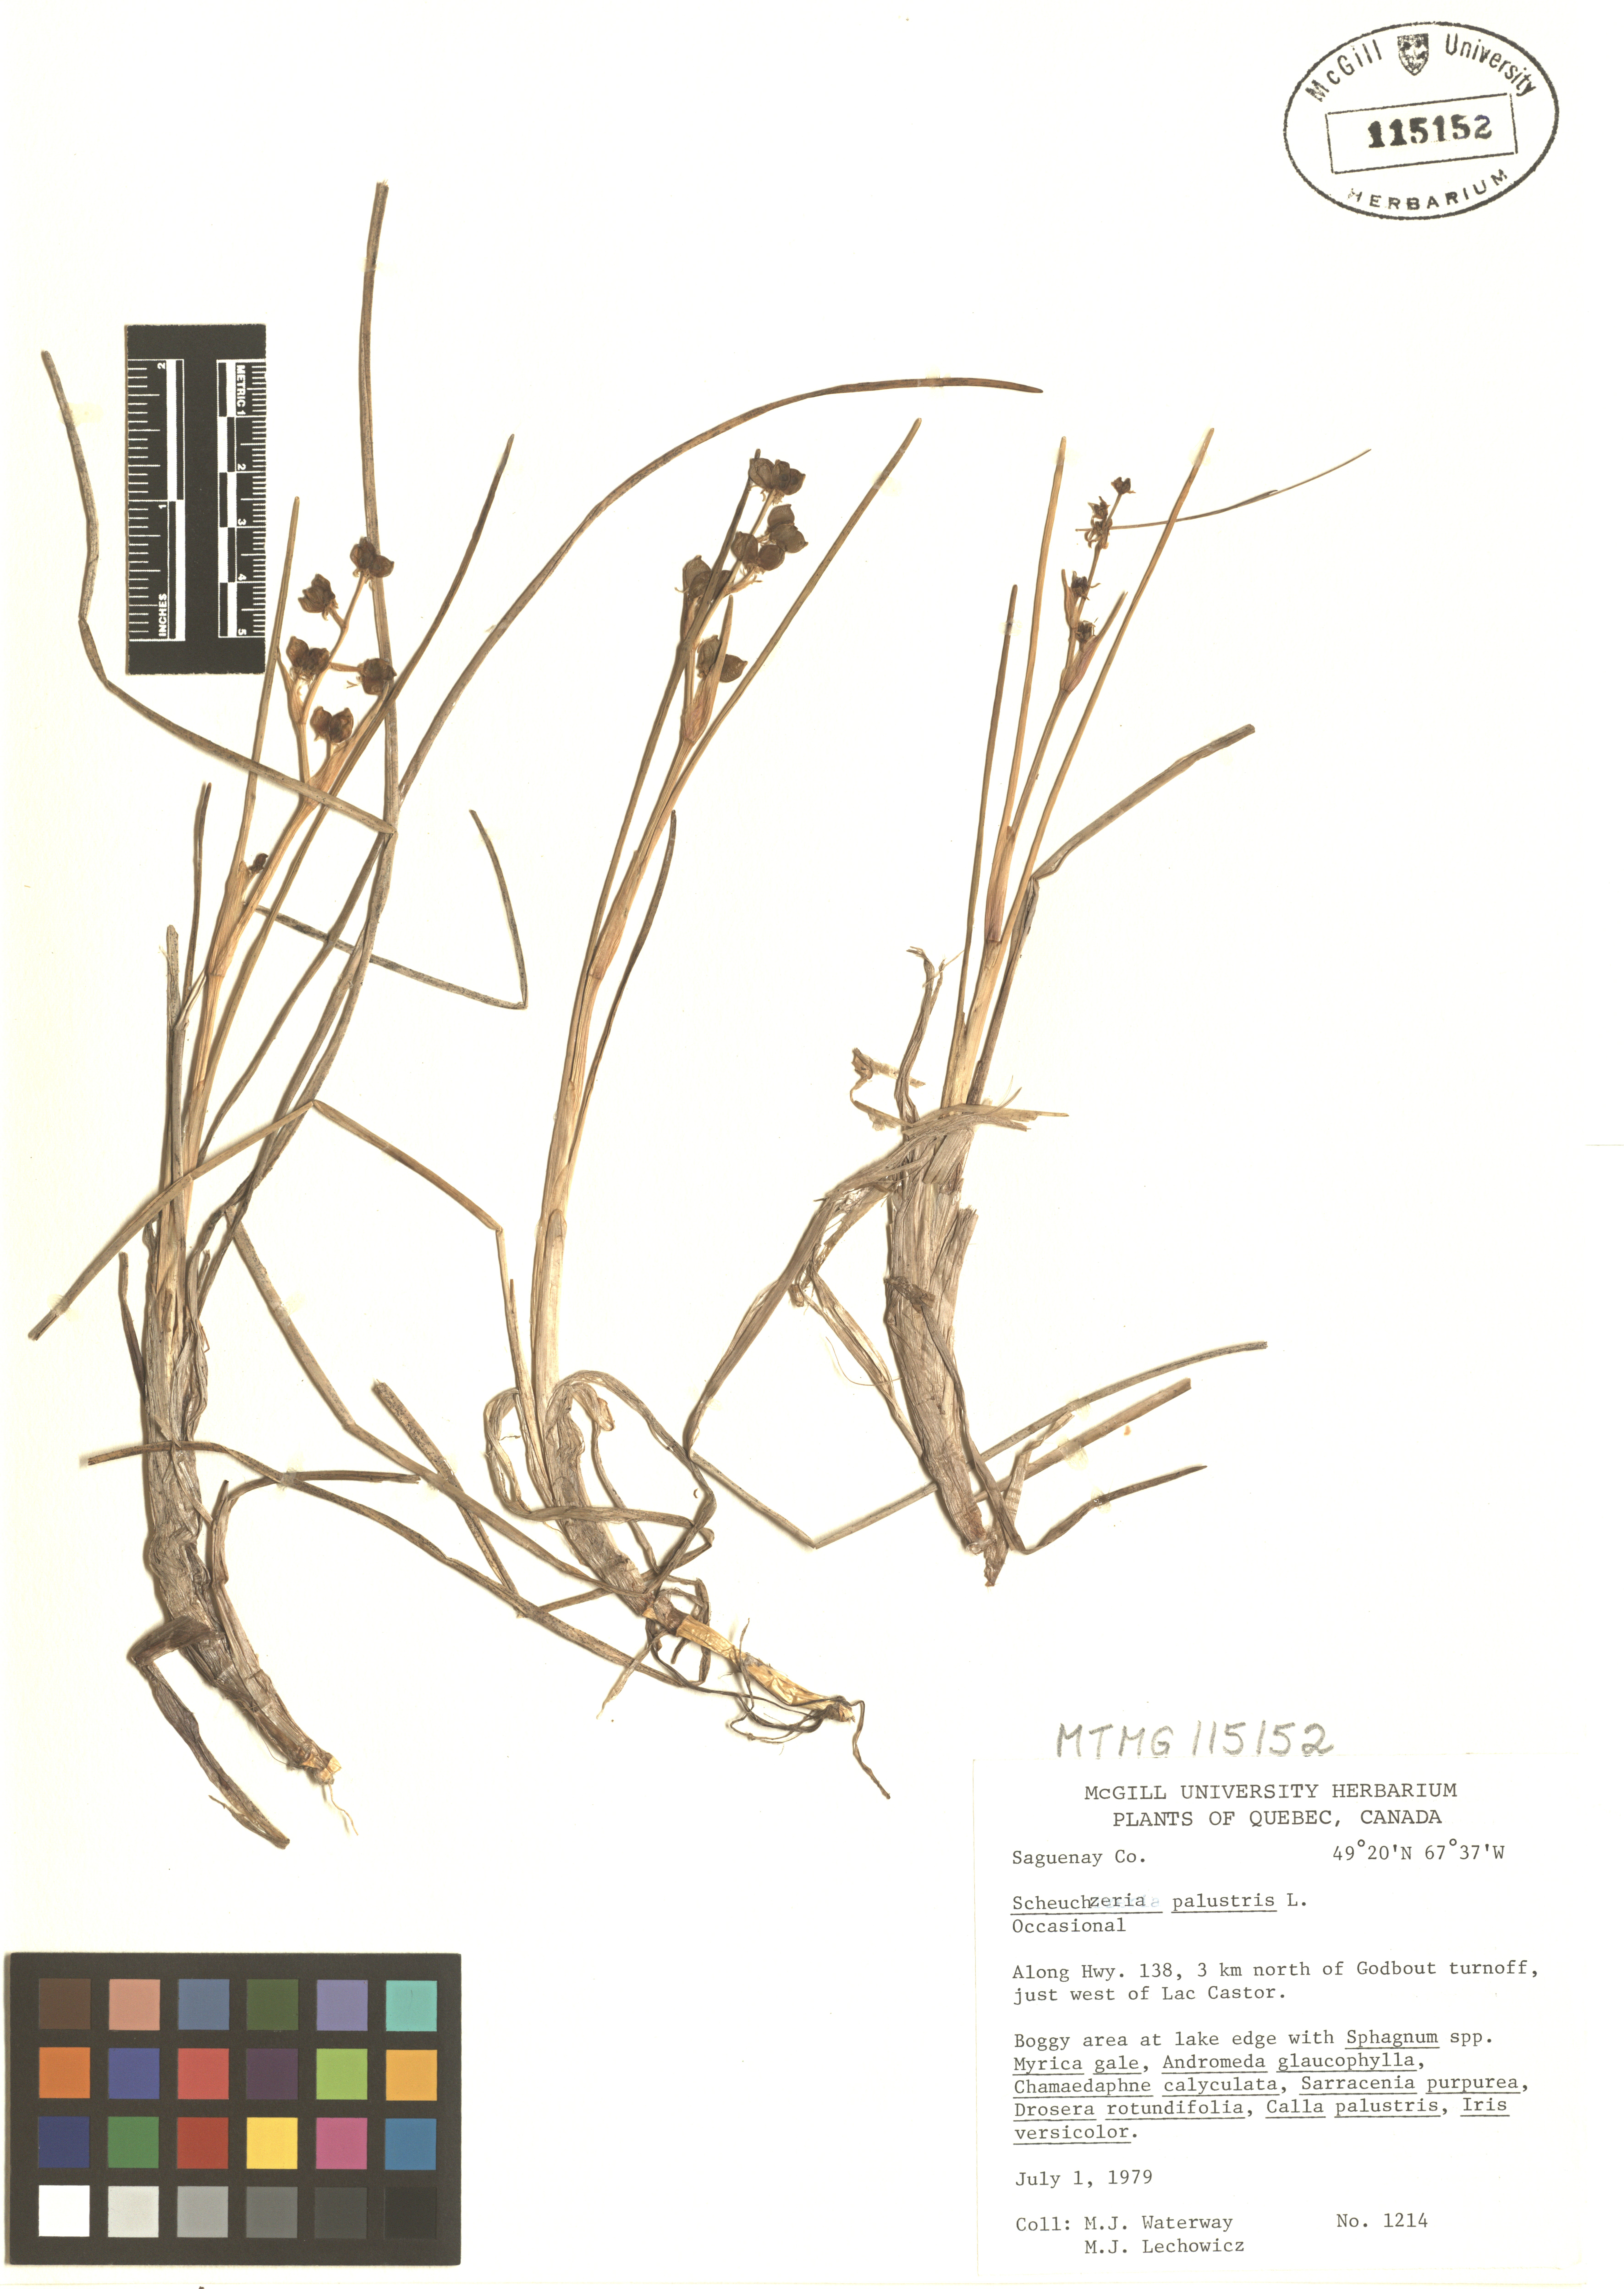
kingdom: Plantae
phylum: Tracheophyta
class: Liliopsida
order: Alismatales
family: Scheuchzeriaceae
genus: Scheuchzeria
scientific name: Scheuchzeria palustris
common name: Rannoch-rush
